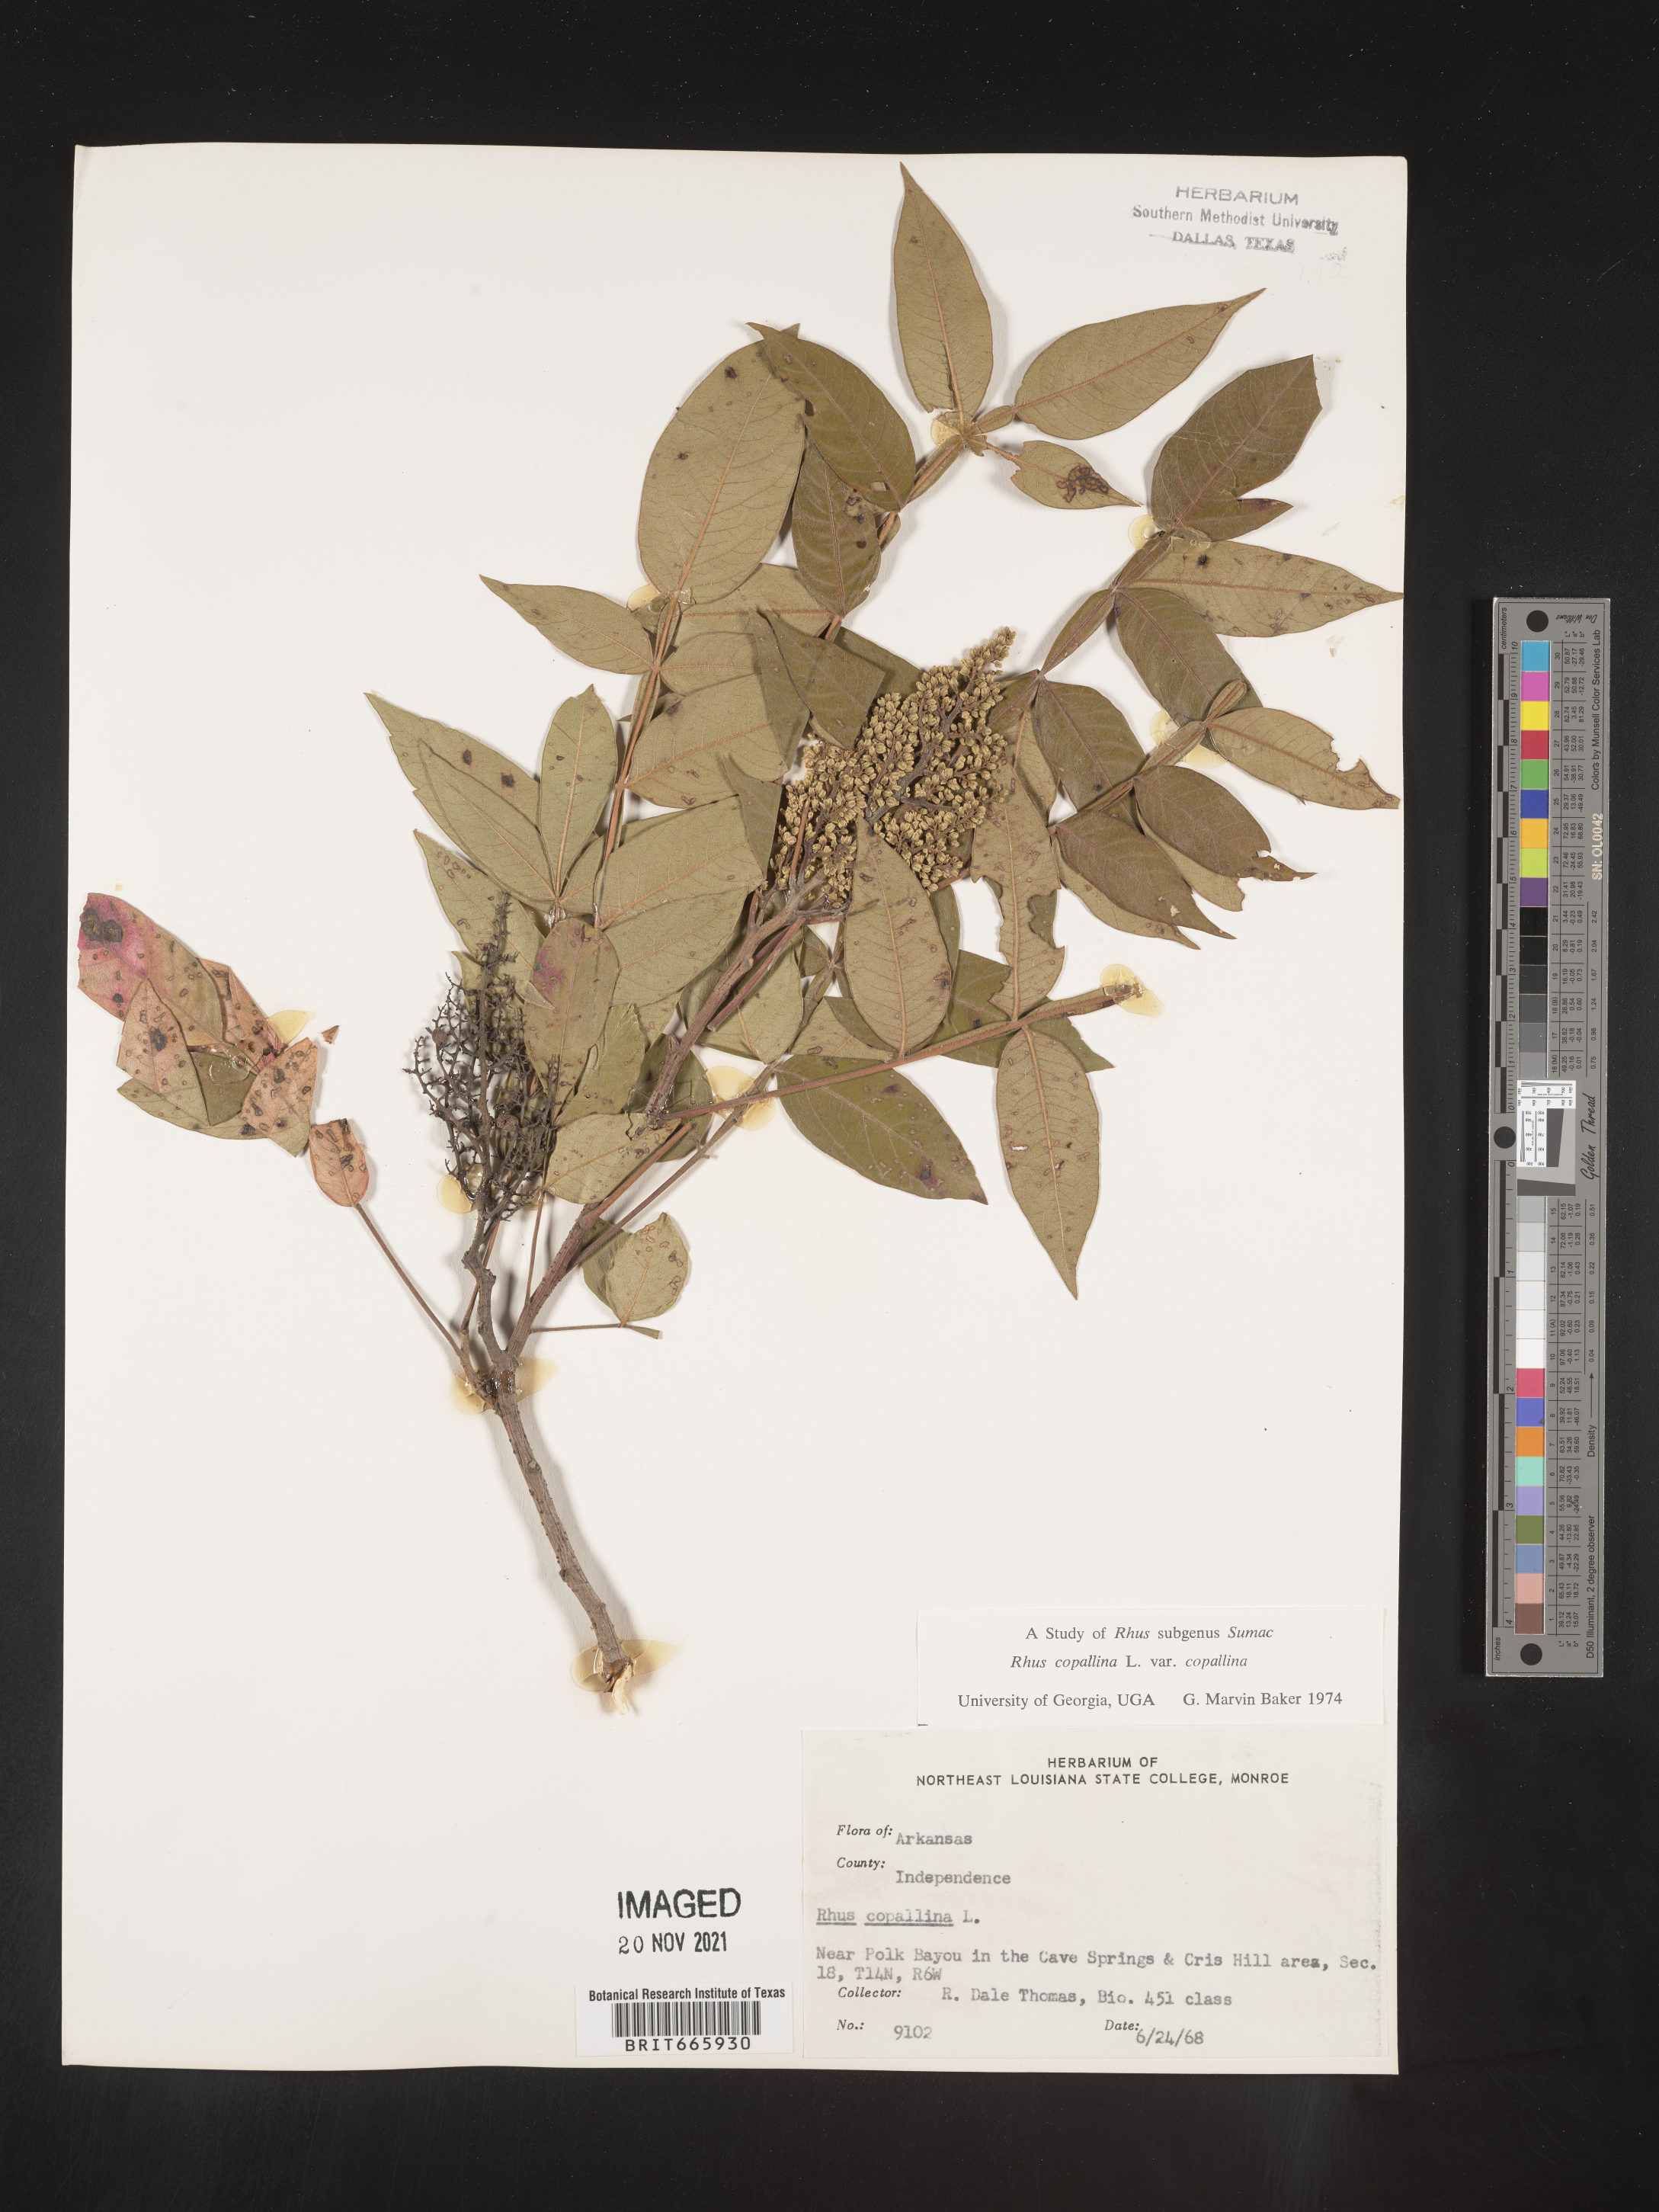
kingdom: Plantae
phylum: Tracheophyta
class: Magnoliopsida
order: Sapindales
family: Anacardiaceae
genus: Rhus
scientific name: Rhus copallina
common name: Shining sumac
